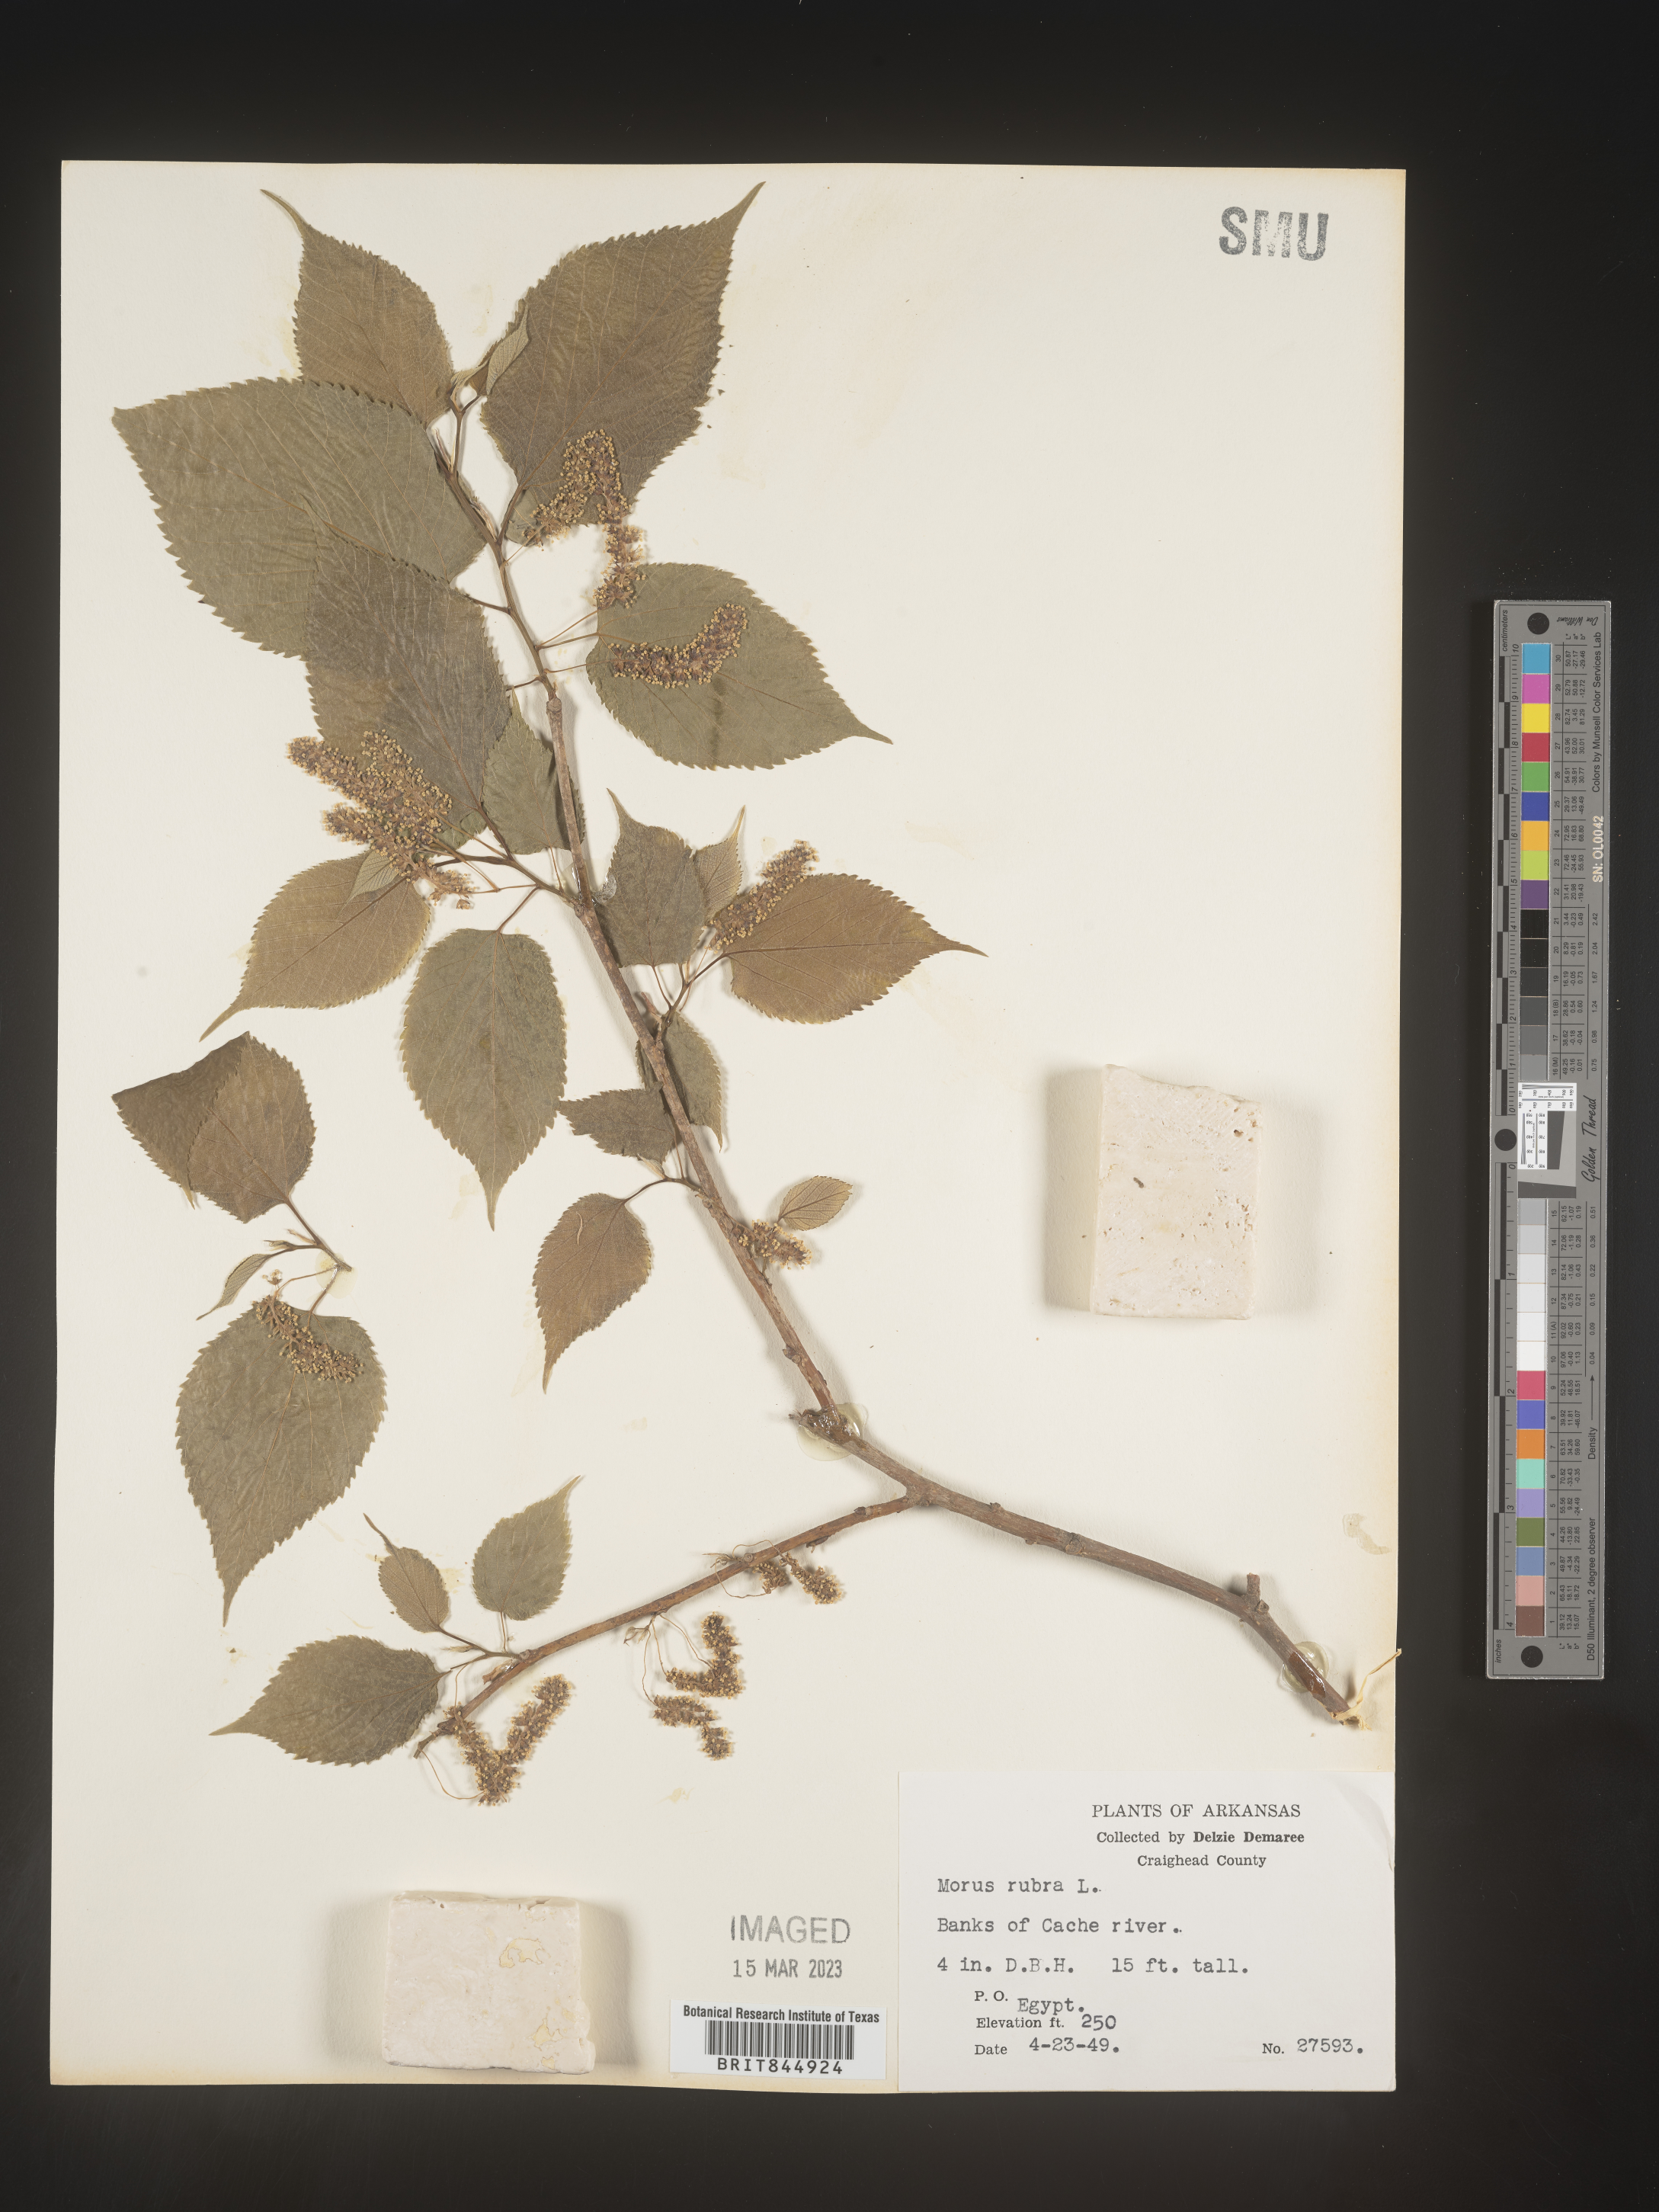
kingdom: Plantae
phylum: Tracheophyta
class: Magnoliopsida
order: Rosales
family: Moraceae
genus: Morus
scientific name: Morus rubra
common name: Red mulberry
